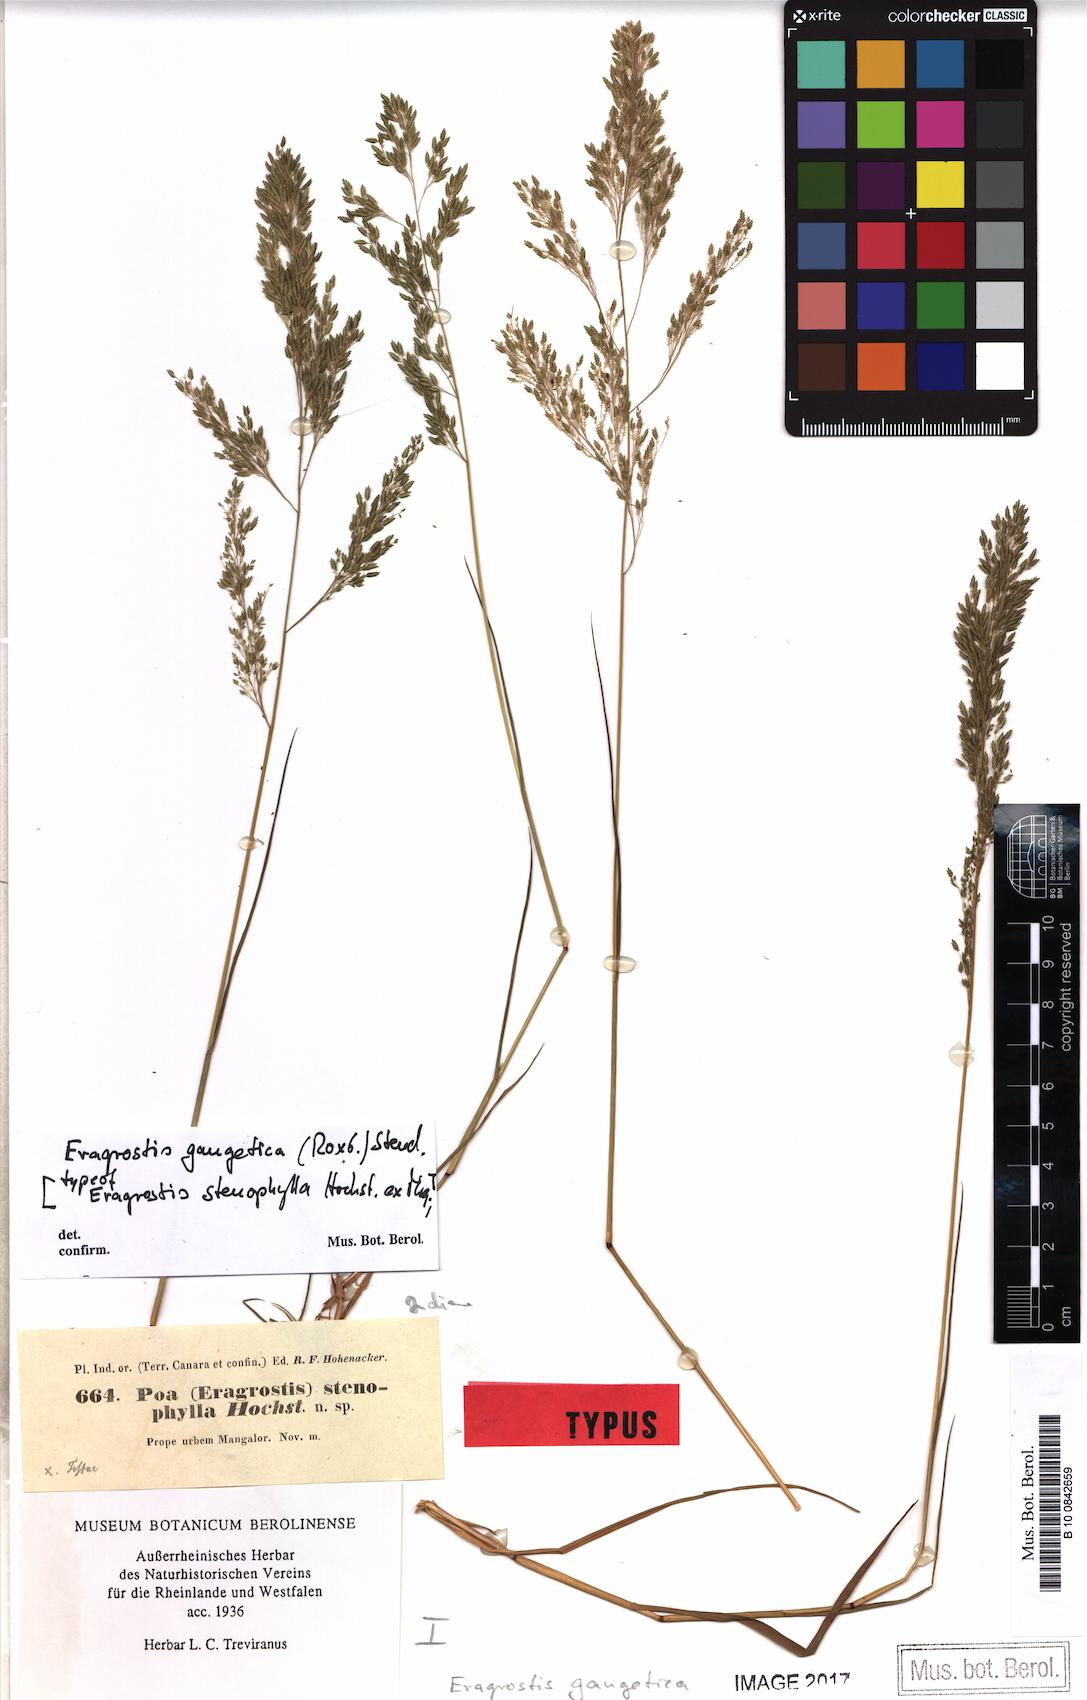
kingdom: Plantae
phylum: Tracheophyta
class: Liliopsida
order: Poales
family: Poaceae
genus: Eragrostis
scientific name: Eragrostis gangetica
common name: Slimflower lovegrass
